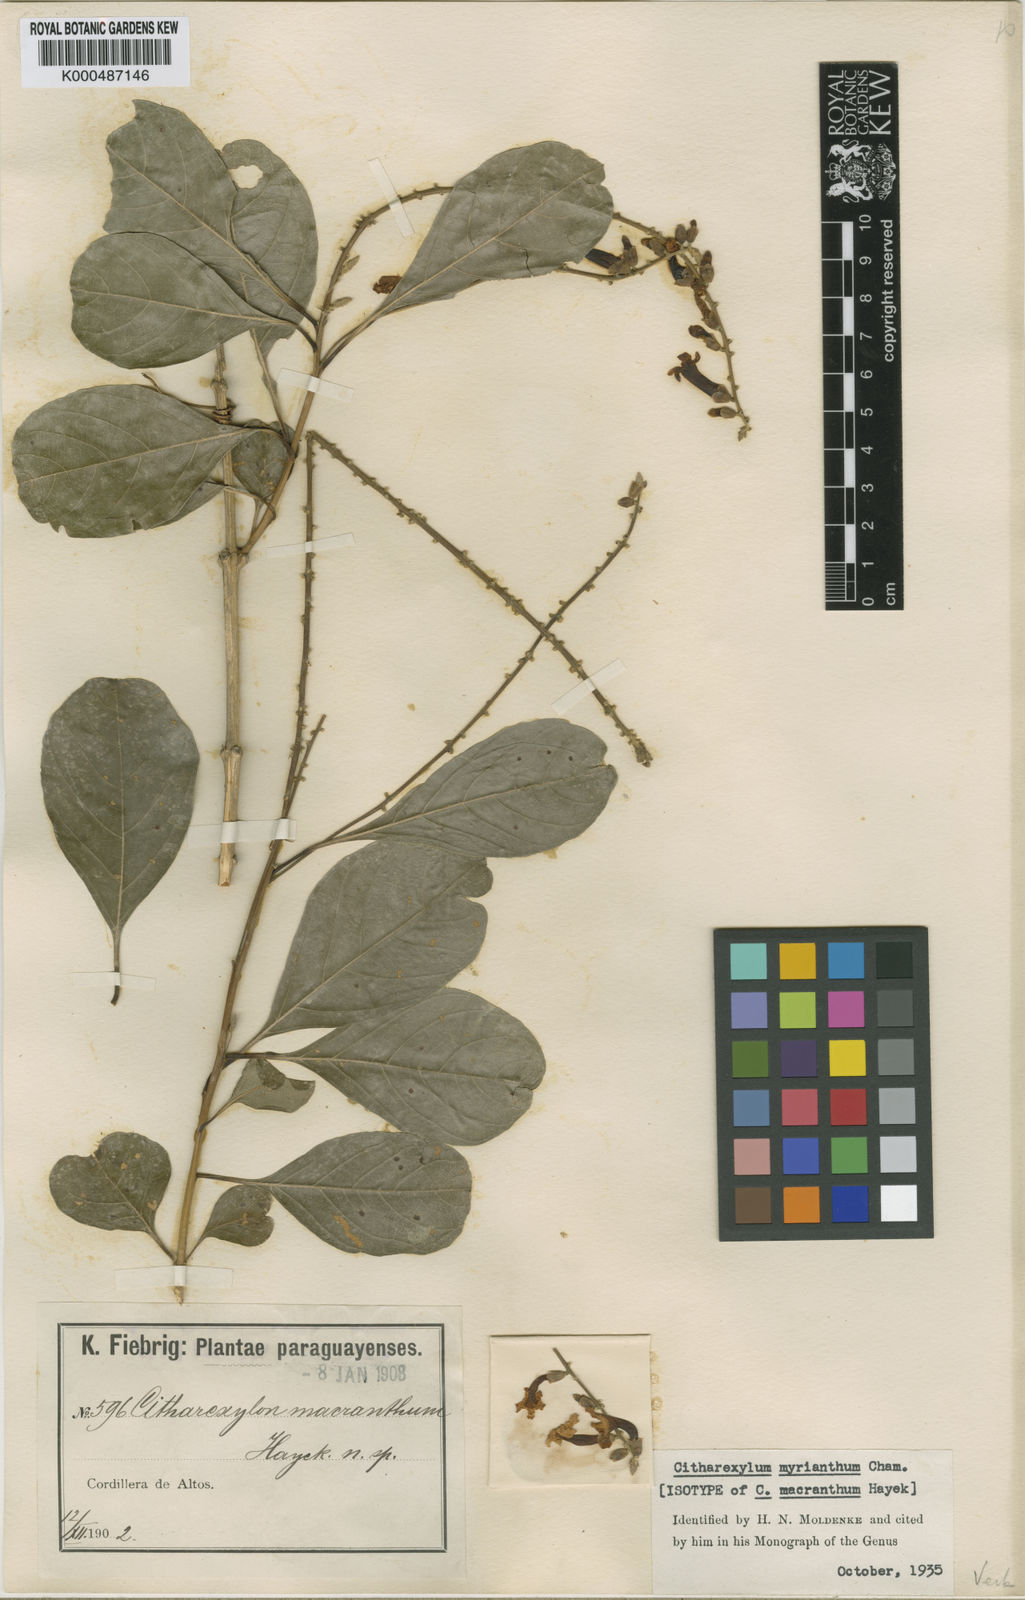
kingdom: Plantae
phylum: Tracheophyta
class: Magnoliopsida
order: Lamiales
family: Verbenaceae
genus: Citharexylum
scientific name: Citharexylum myrianthum
